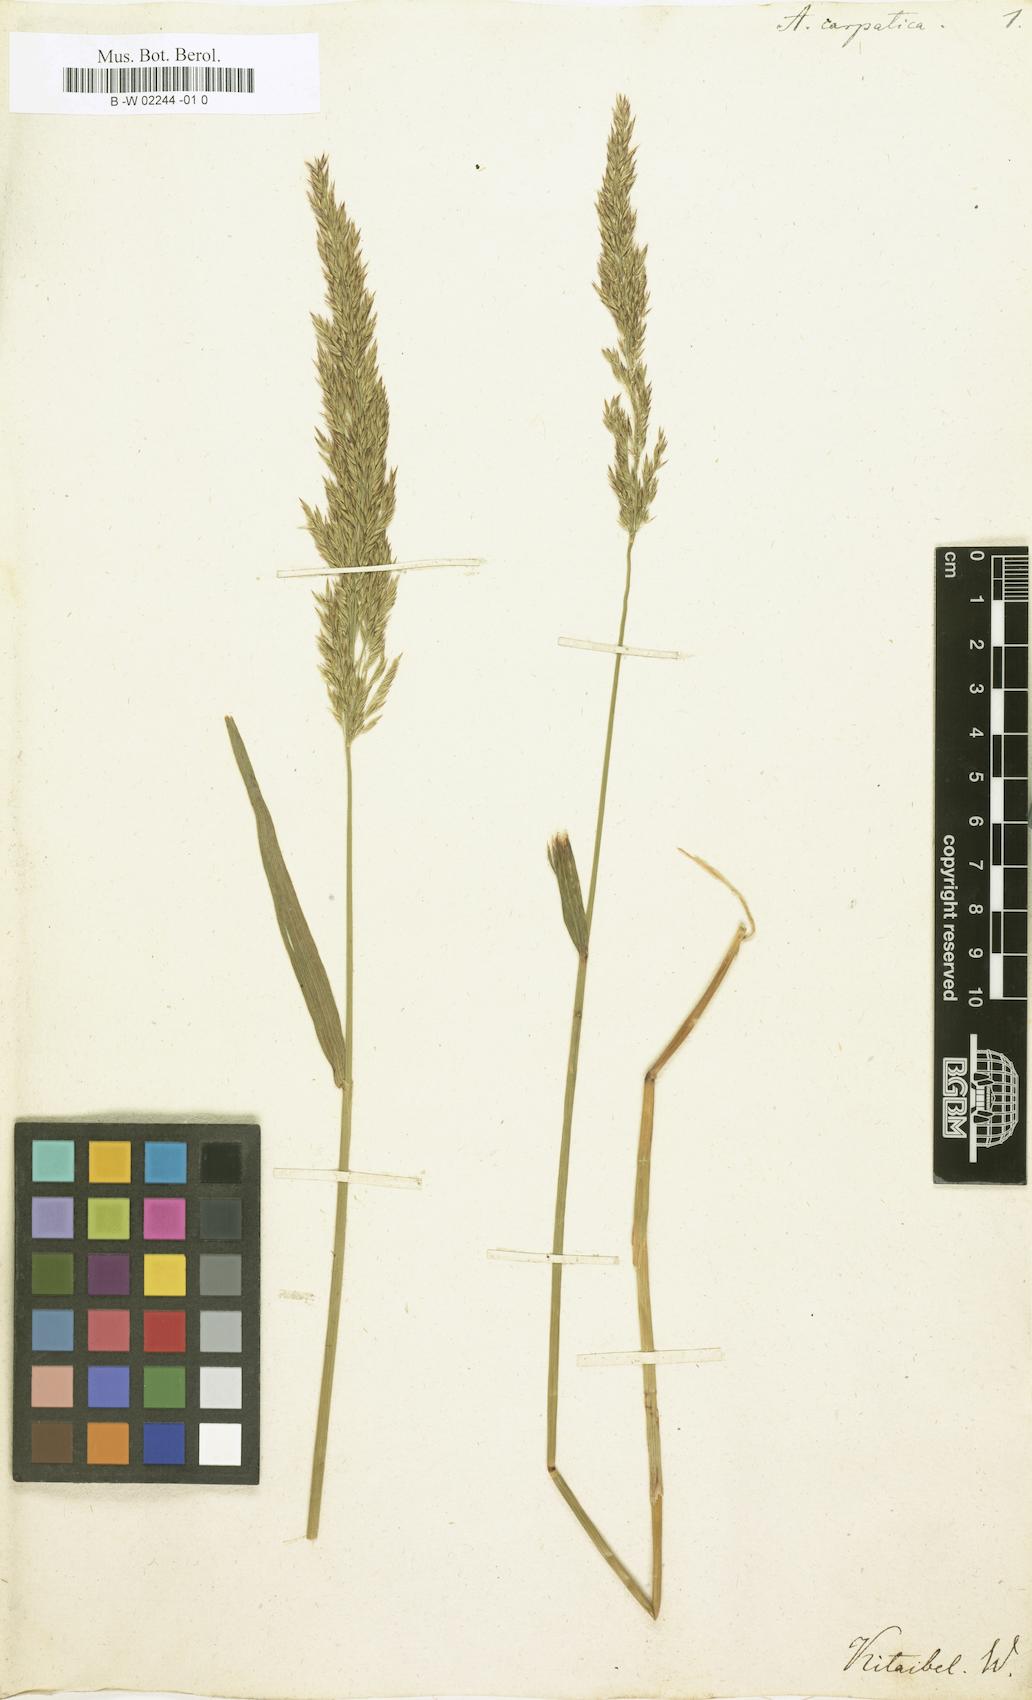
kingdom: Plantae
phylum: Tracheophyta
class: Liliopsida
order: Poales
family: Poaceae
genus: Arundo
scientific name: Arundo
